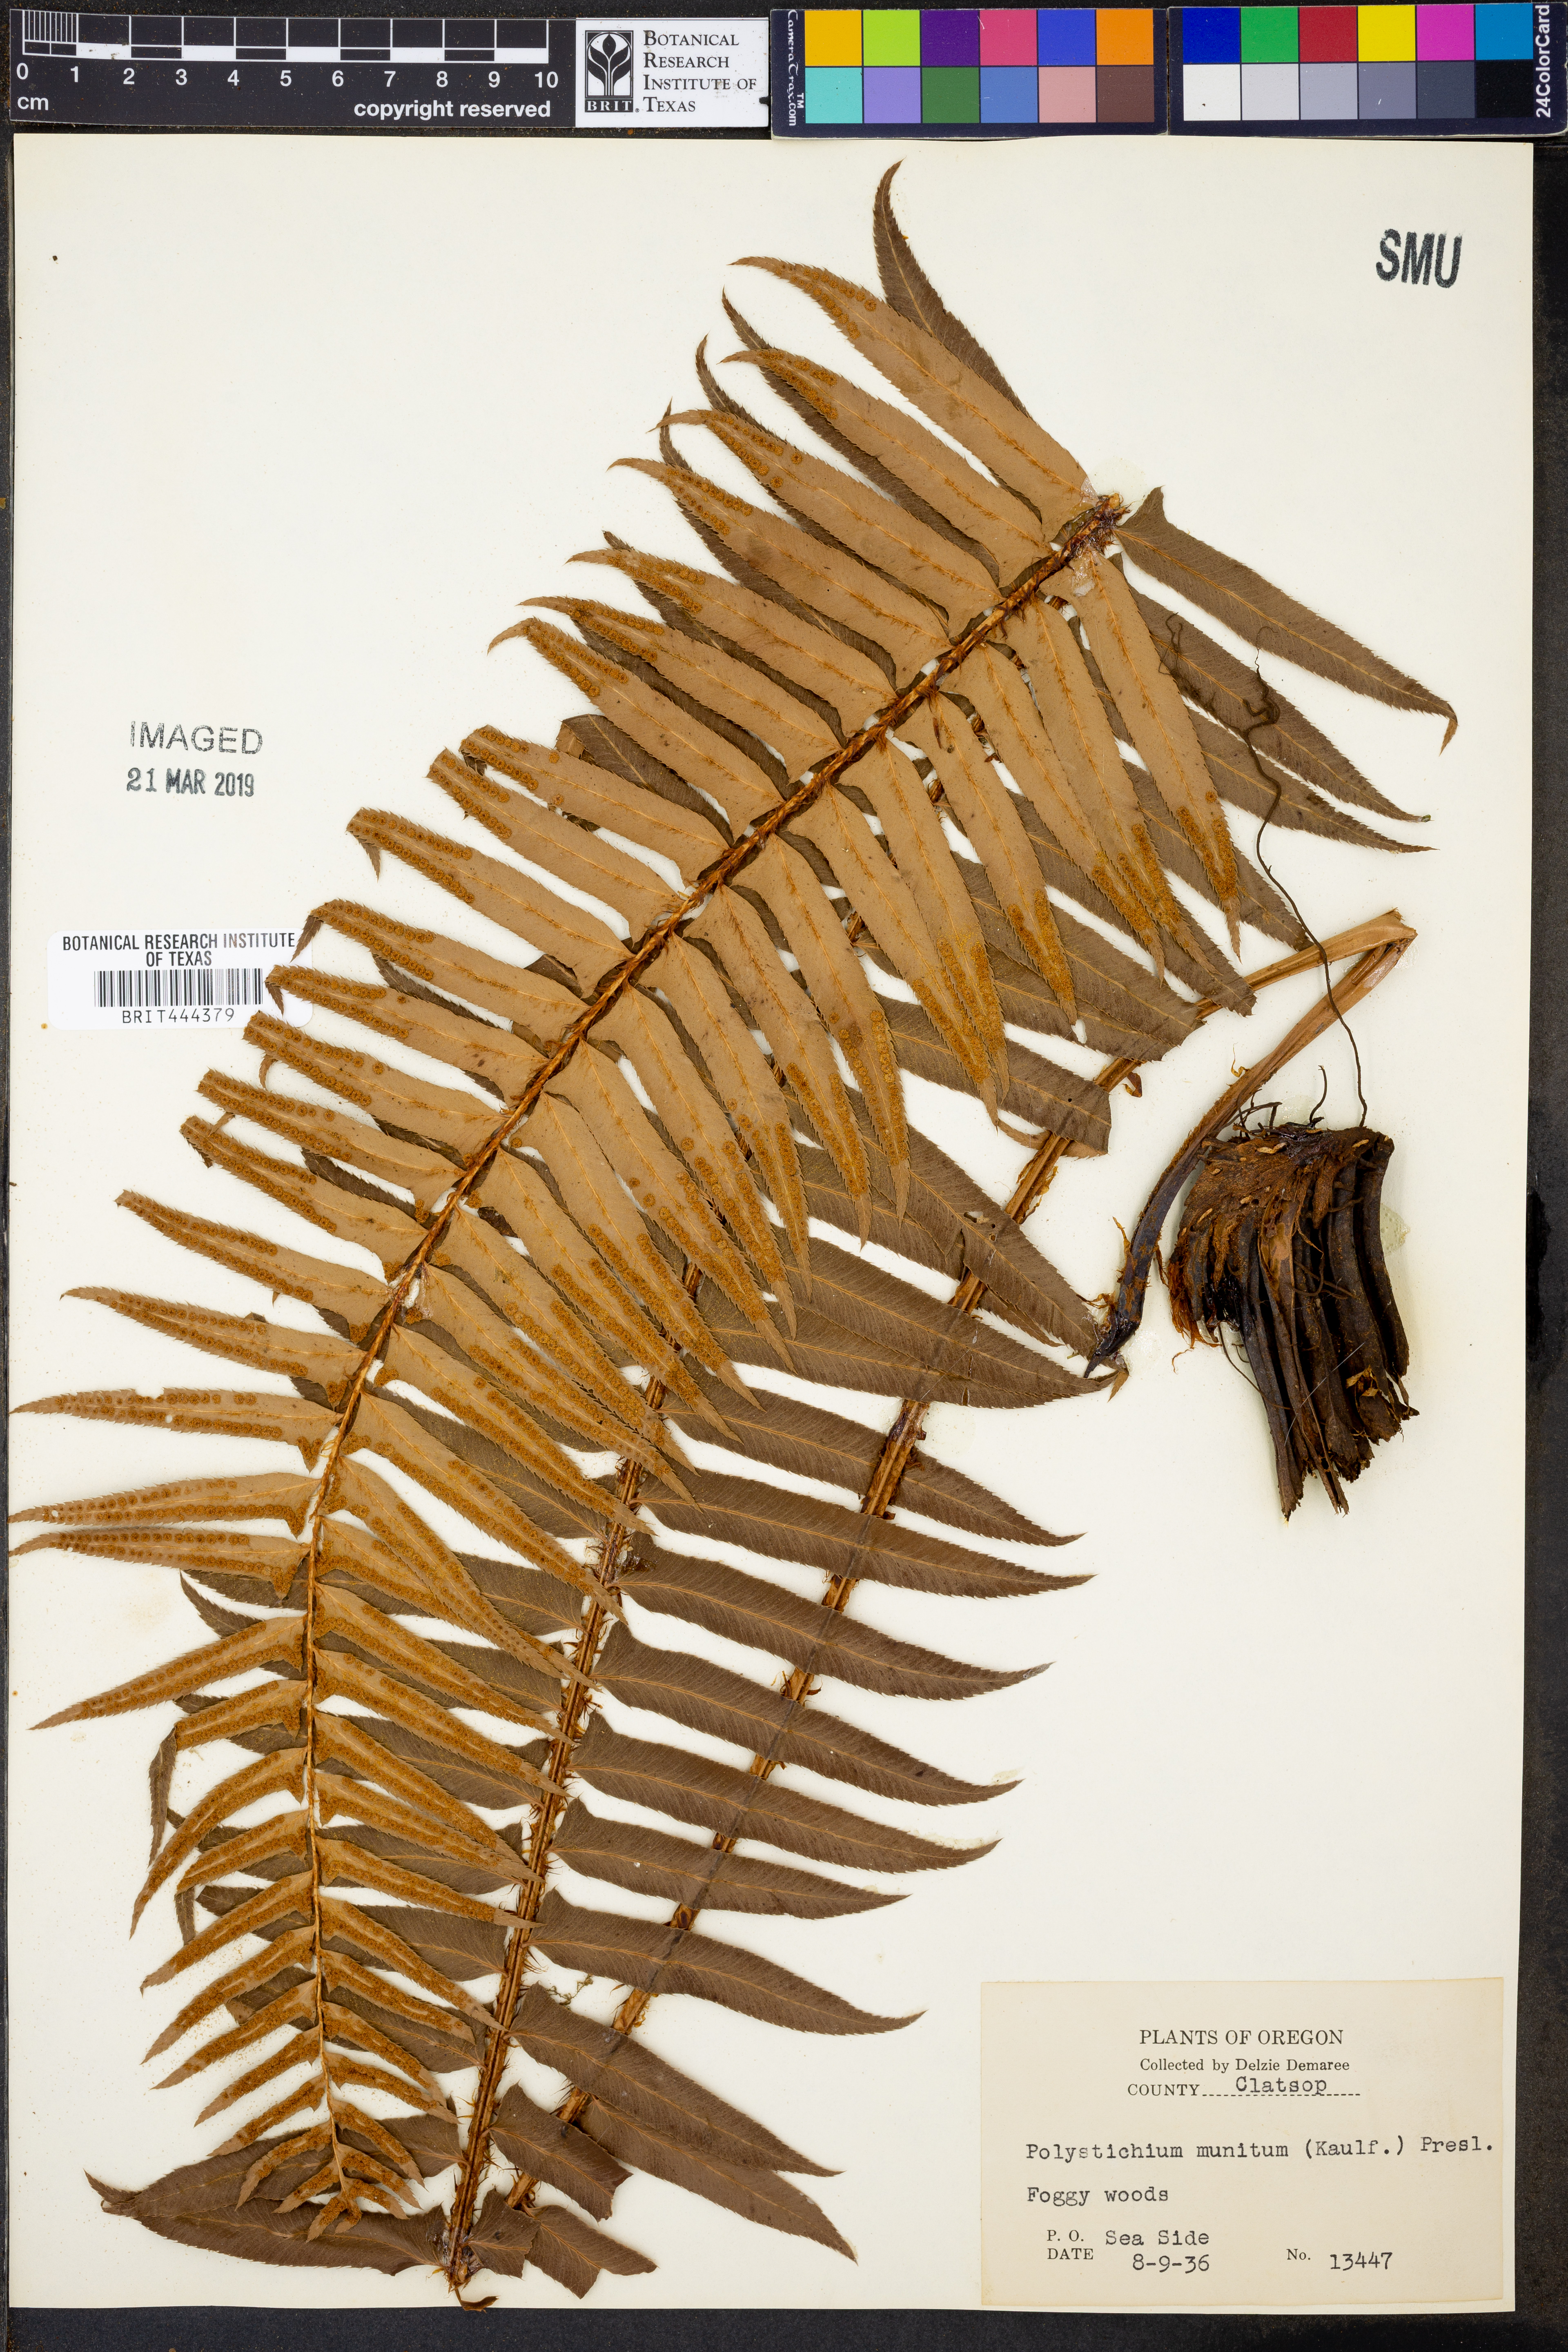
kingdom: Plantae
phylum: Tracheophyta
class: Polypodiopsida
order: Polypodiales
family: Dryopteridaceae
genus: Polystichum
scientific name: Polystichum munitum
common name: Western sword-fern
